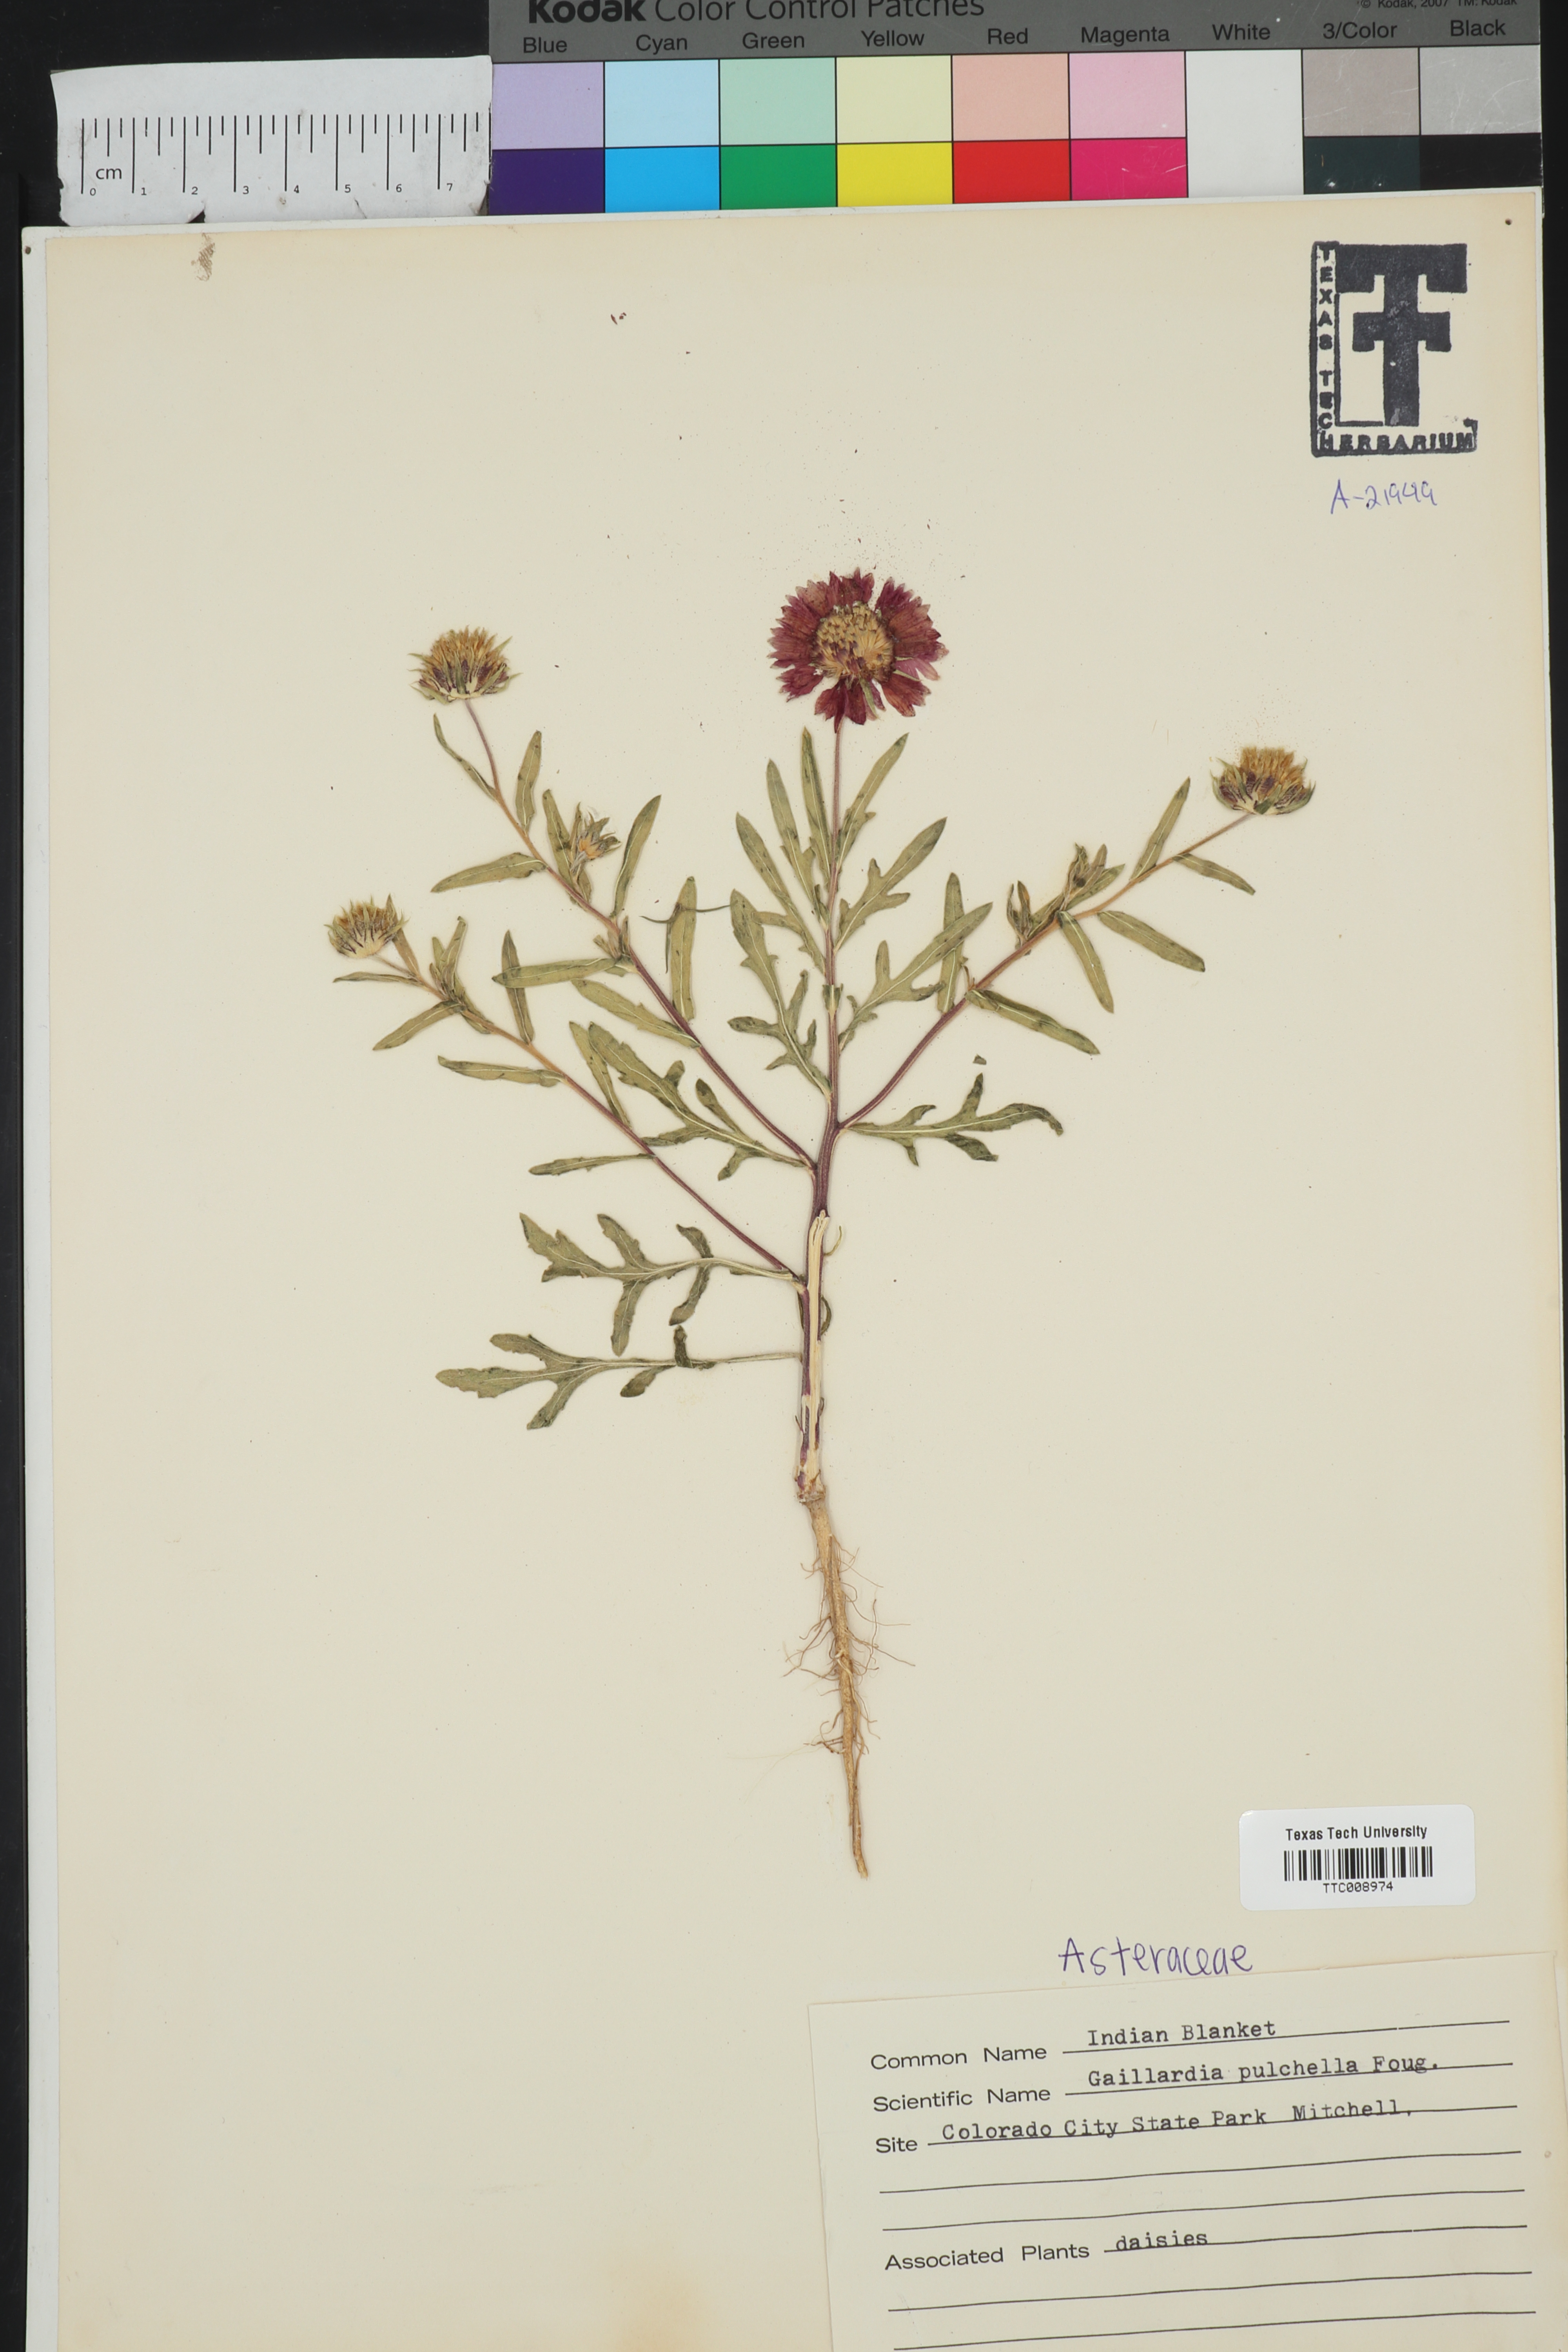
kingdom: Plantae
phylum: Tracheophyta
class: Magnoliopsida
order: Asterales
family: Asteraceae
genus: Gaillardia
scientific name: Gaillardia pulchella
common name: Firewheel
